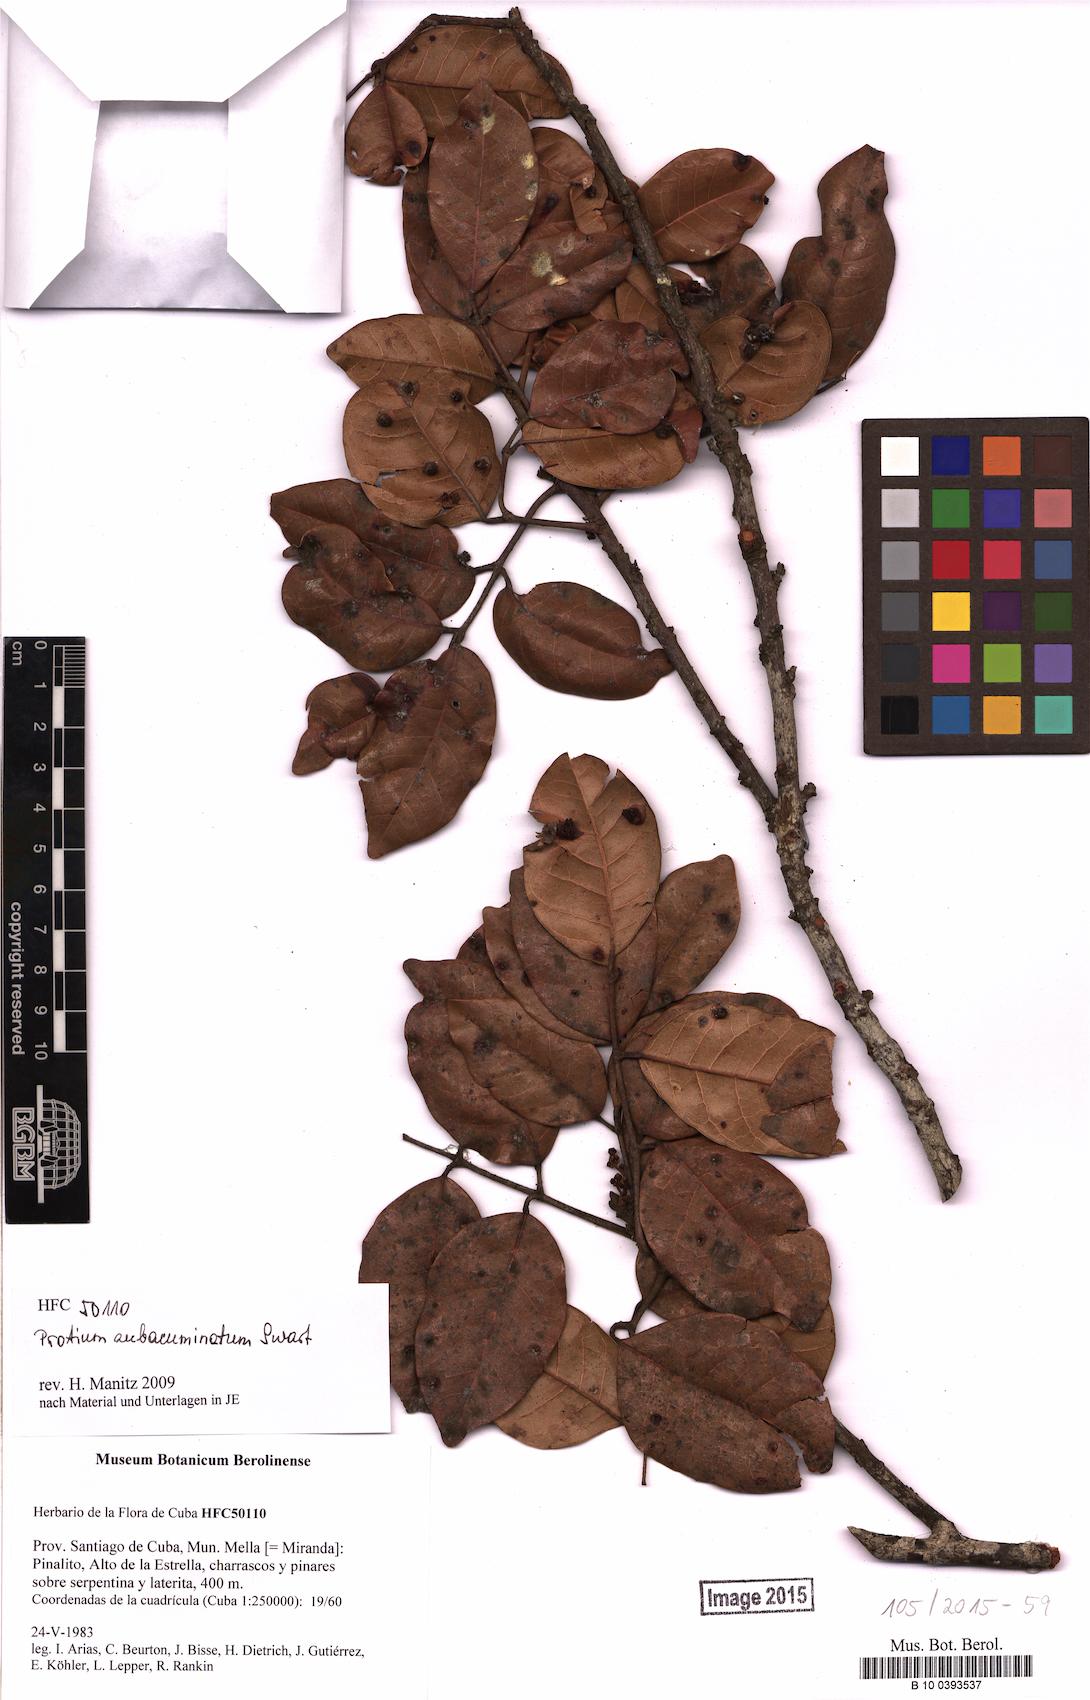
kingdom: Plantae
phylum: Tracheophyta
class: Magnoliopsida
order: Sapindales
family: Burseraceae
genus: Protium
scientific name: Protium subacuminatum
